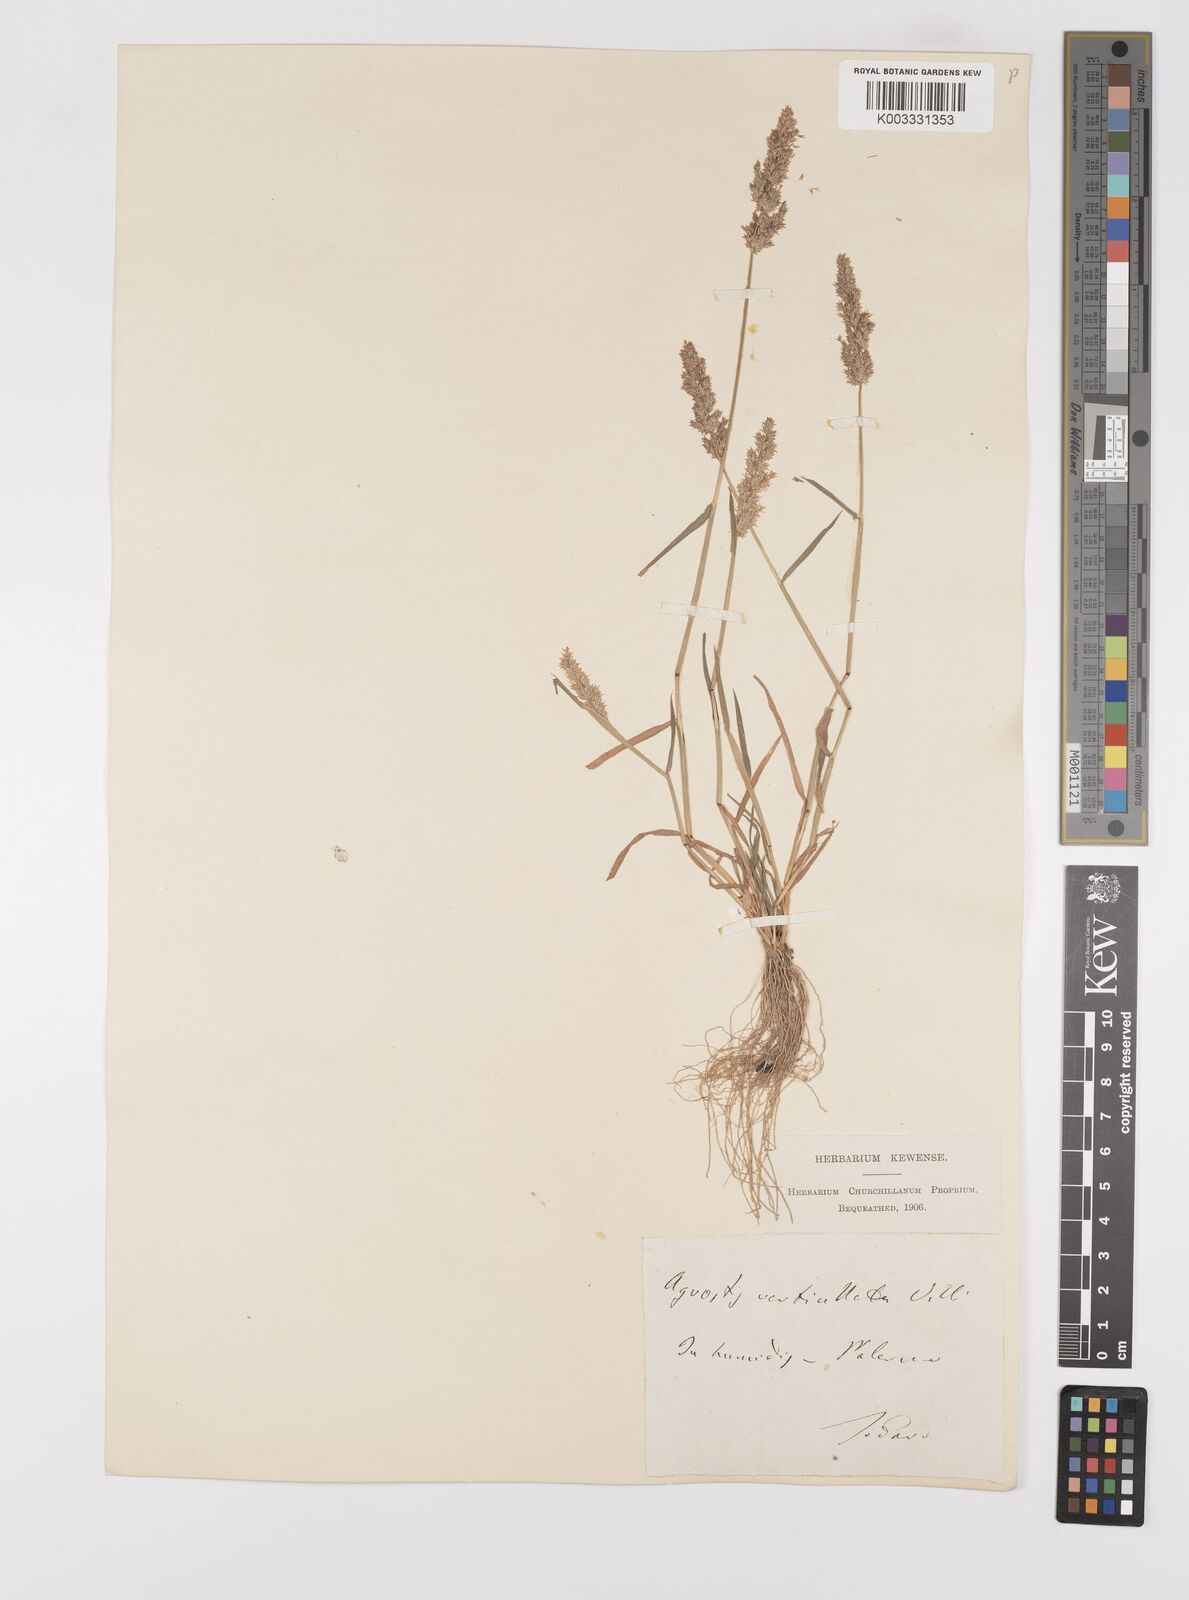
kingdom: Plantae
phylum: Tracheophyta
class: Liliopsida
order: Poales
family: Poaceae
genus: Polypogon
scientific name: Polypogon viridis
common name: Water bent
